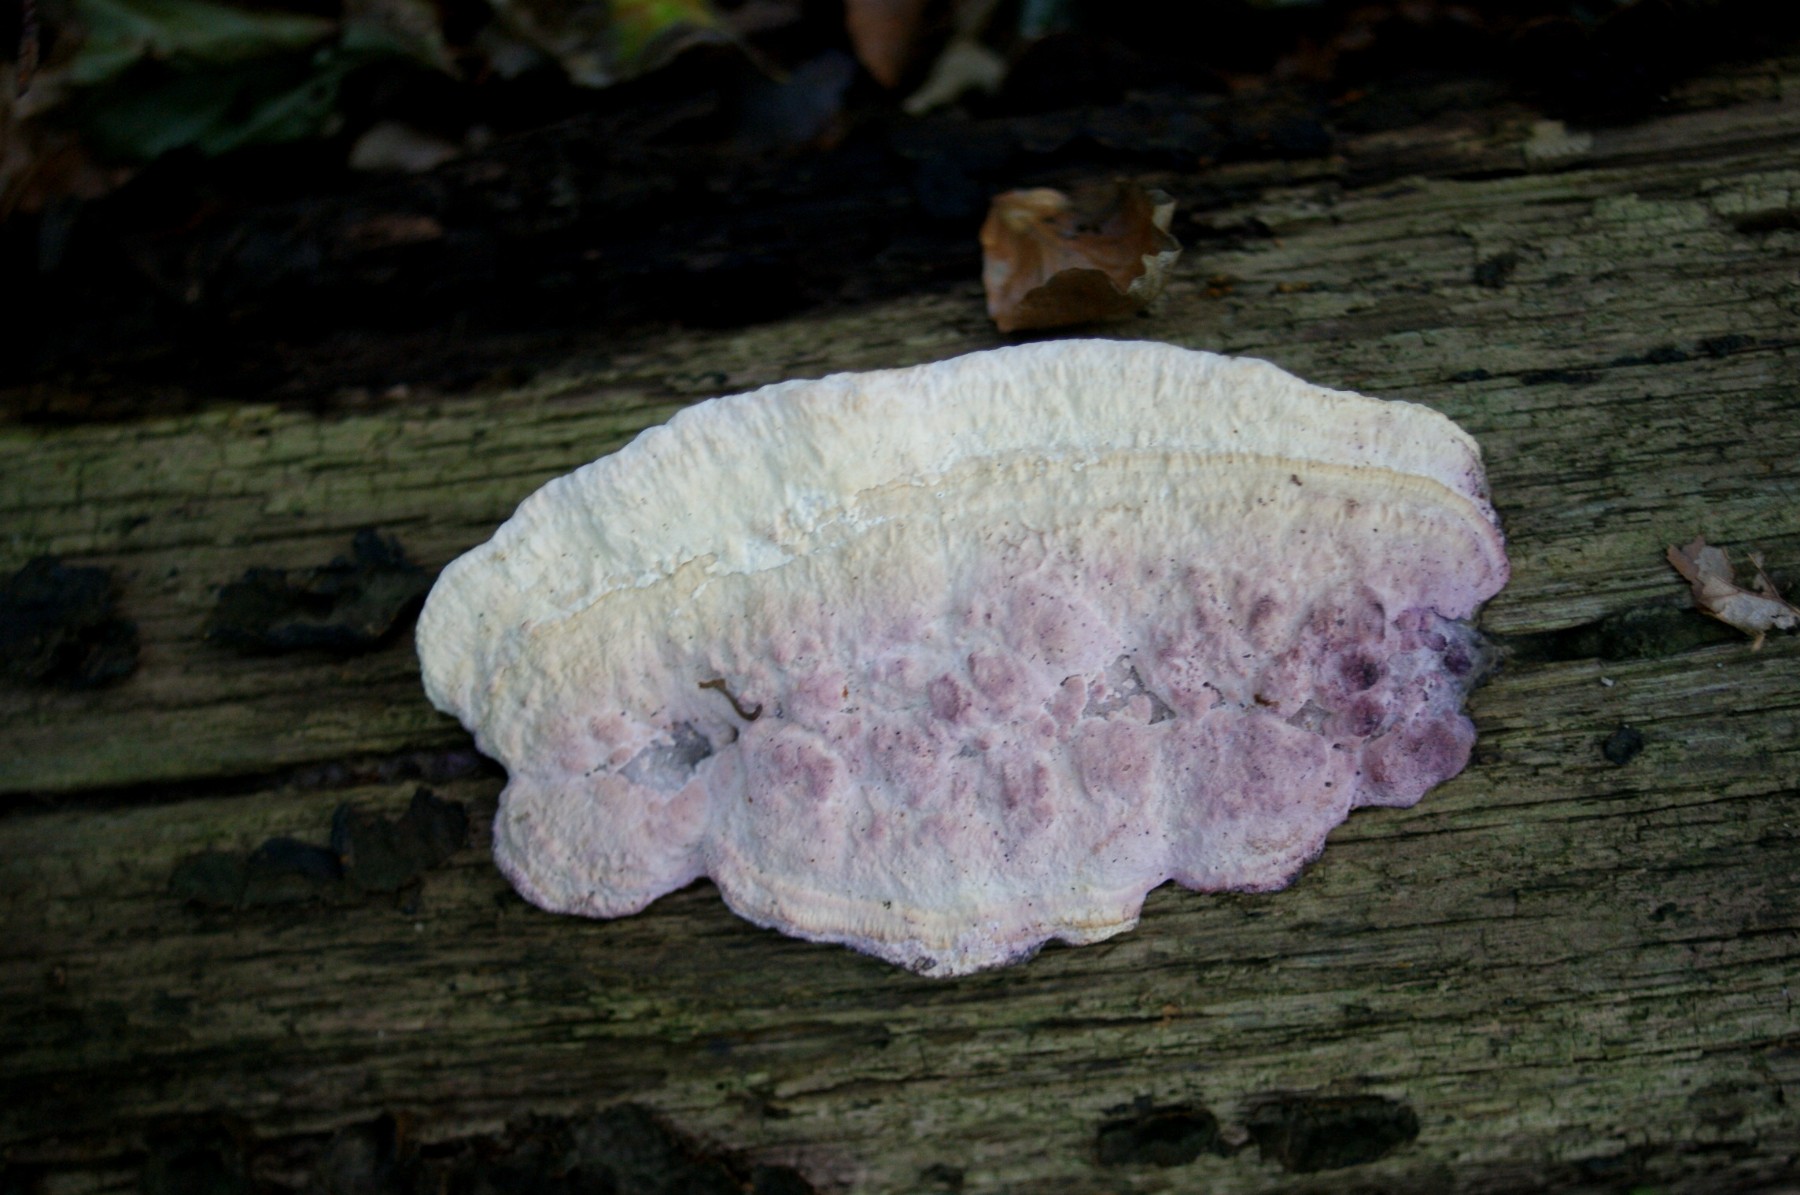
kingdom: Fungi
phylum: Basidiomycota
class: Agaricomycetes
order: Polyporales
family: Fomitopsidaceae
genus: Daedalea
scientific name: Daedalea quercina
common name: ege-labyrintsvamp
